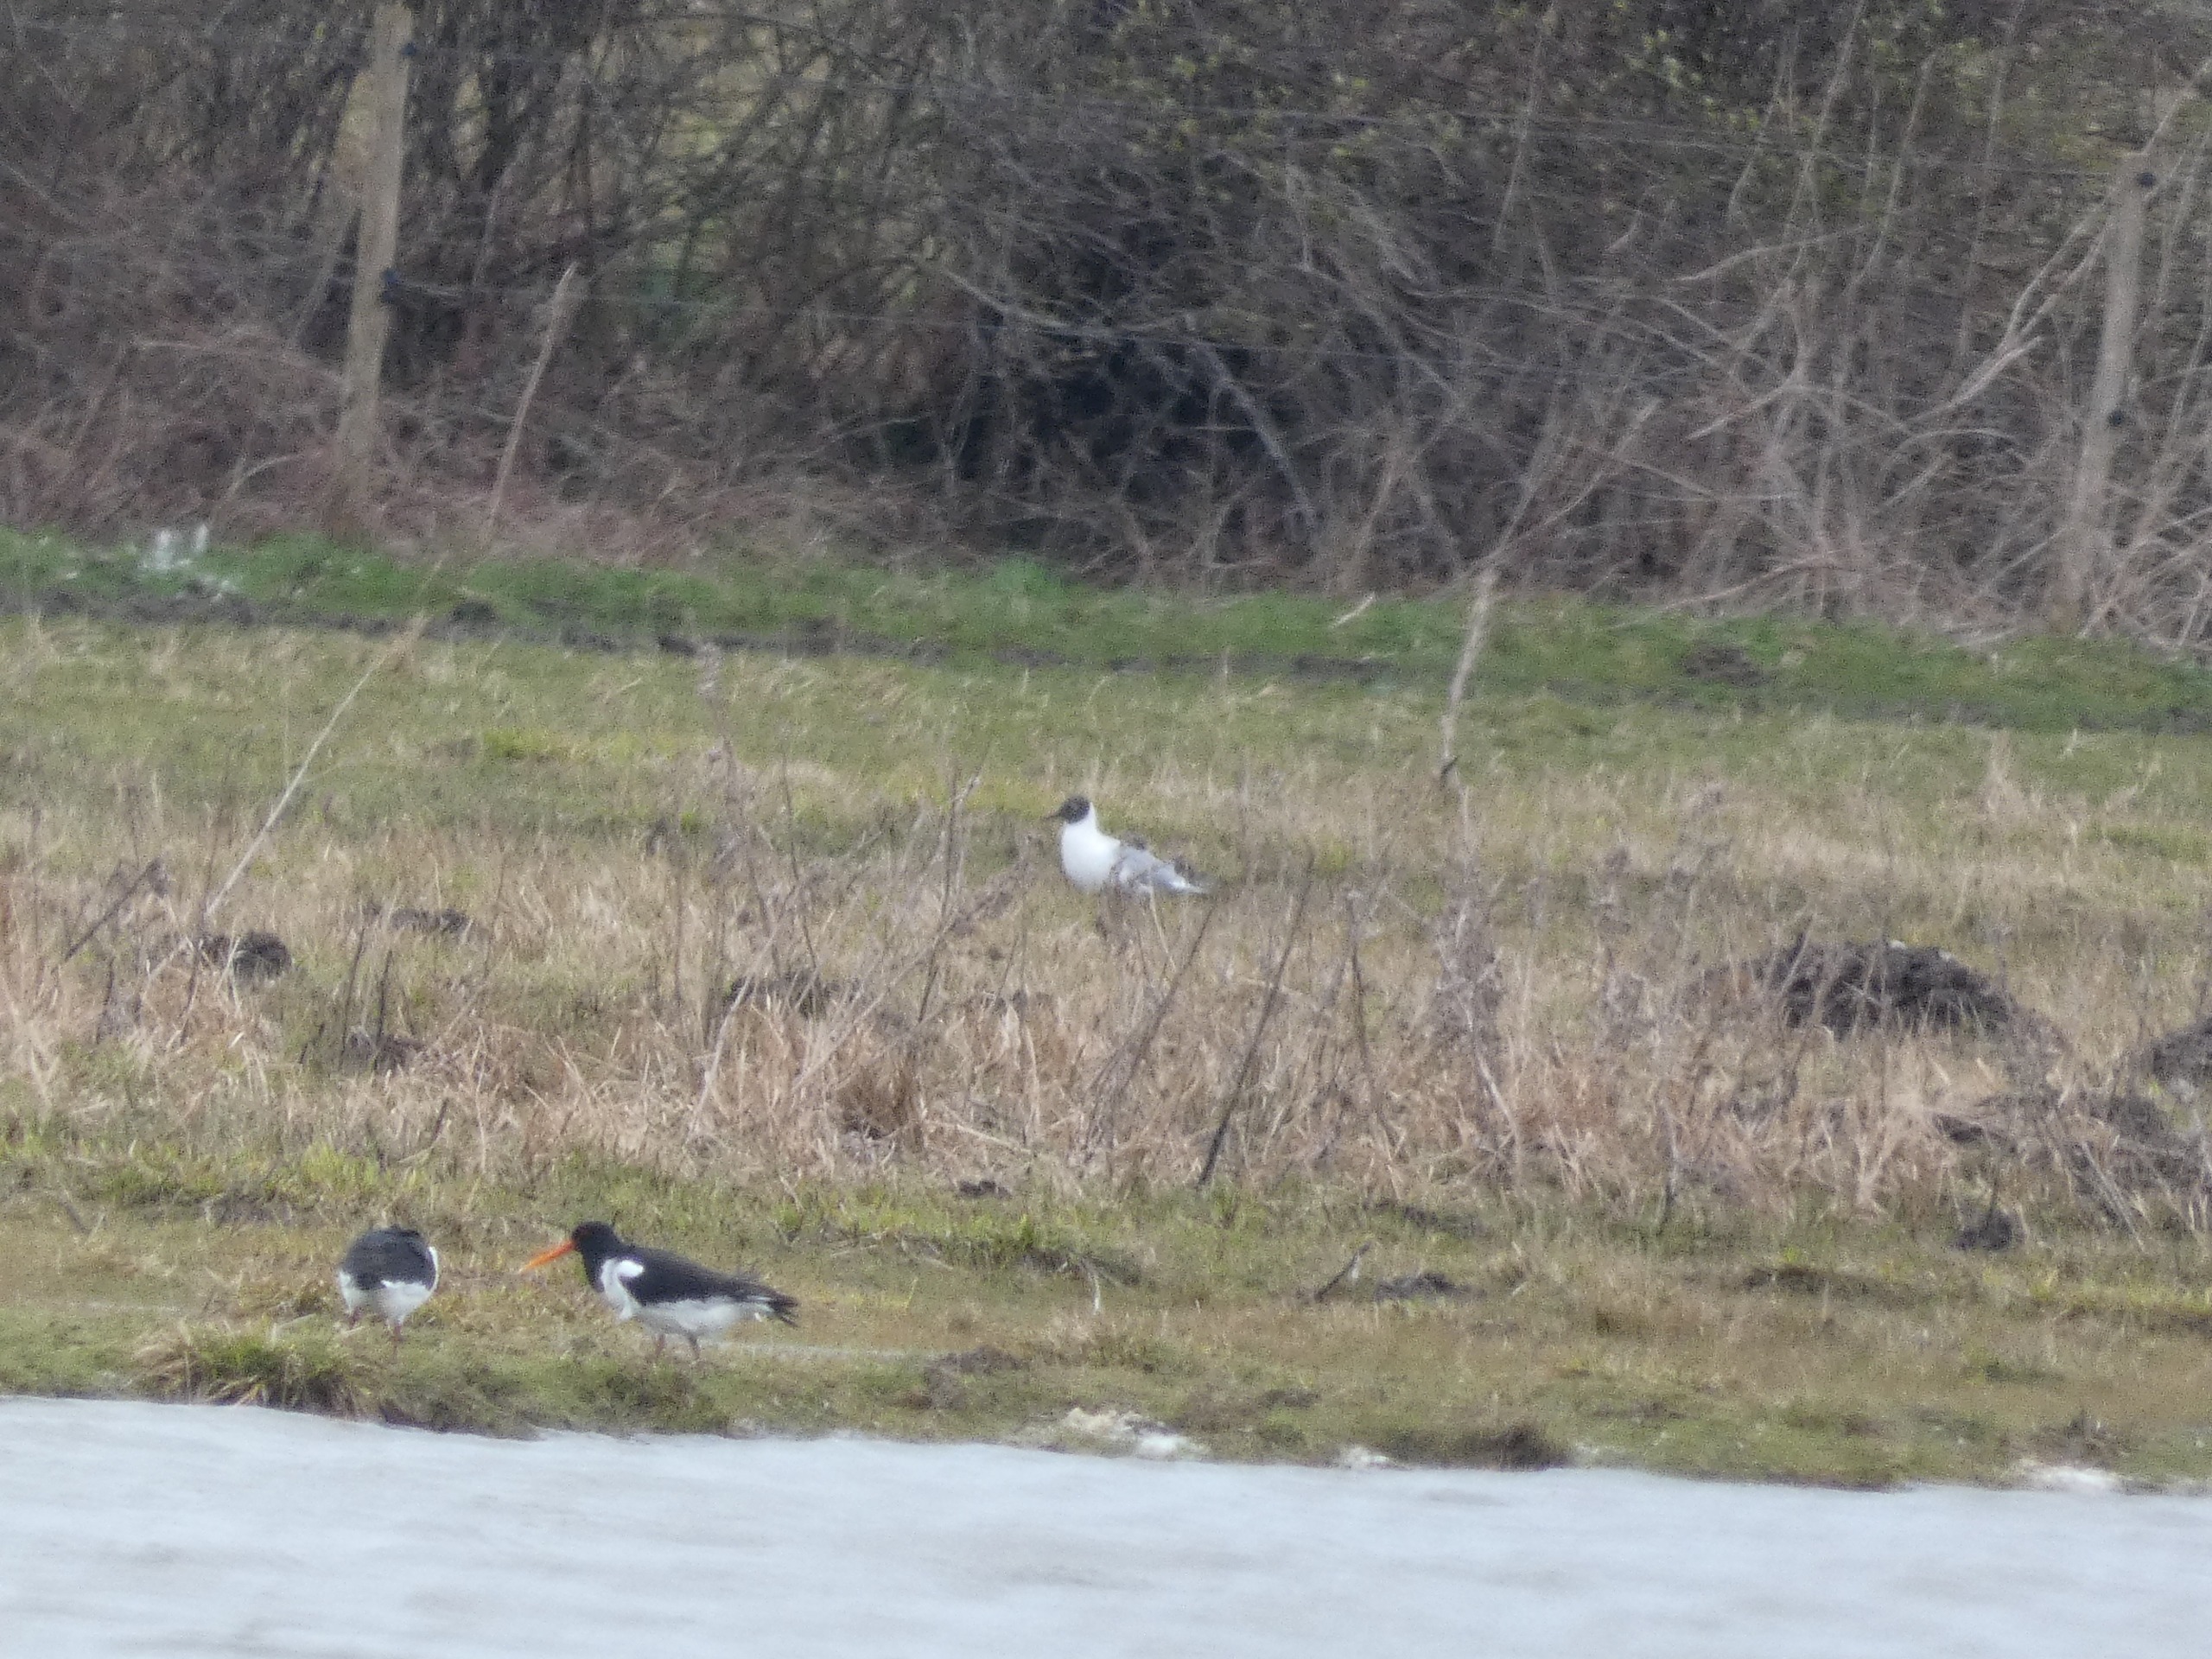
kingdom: Animalia
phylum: Chordata
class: Aves
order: Charadriiformes
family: Haematopodidae
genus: Haematopus
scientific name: Haematopus ostralegus
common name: Strandskade
